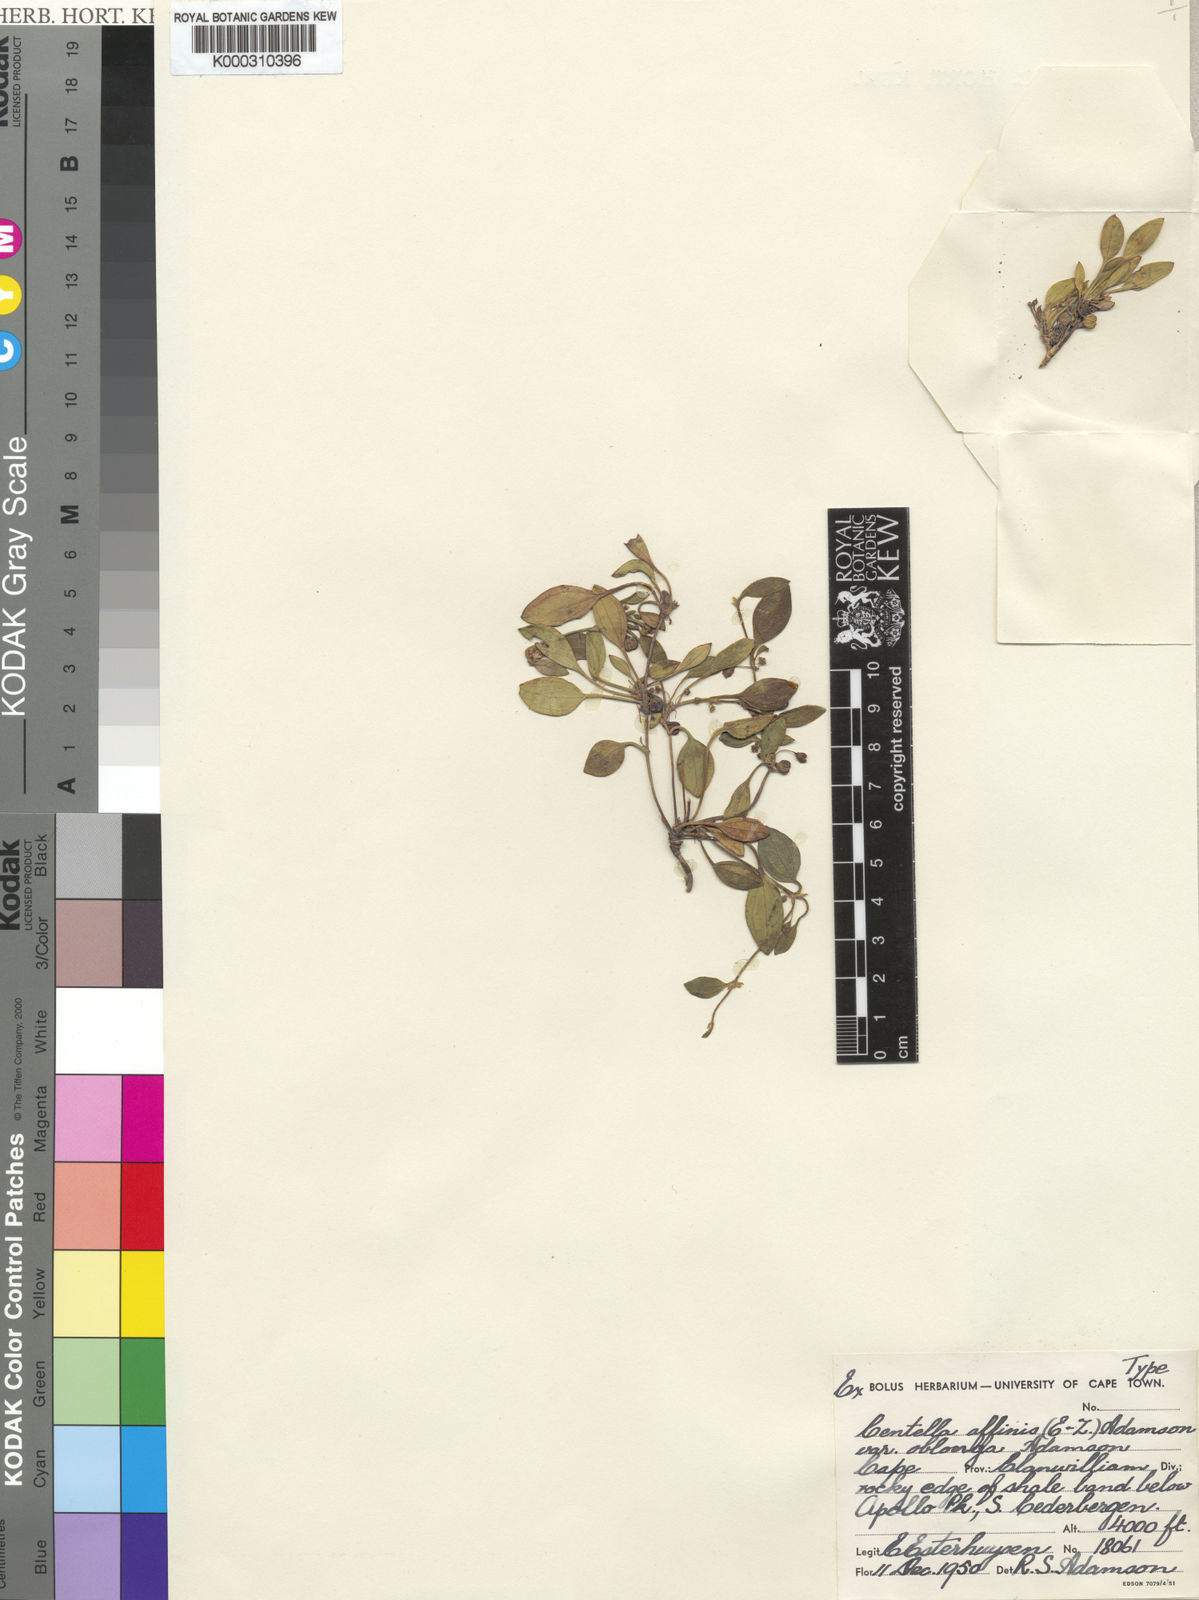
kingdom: Plantae
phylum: Tracheophyta
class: Magnoliopsida
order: Apiales
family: Apiaceae
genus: Centella
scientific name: Centella affinis
